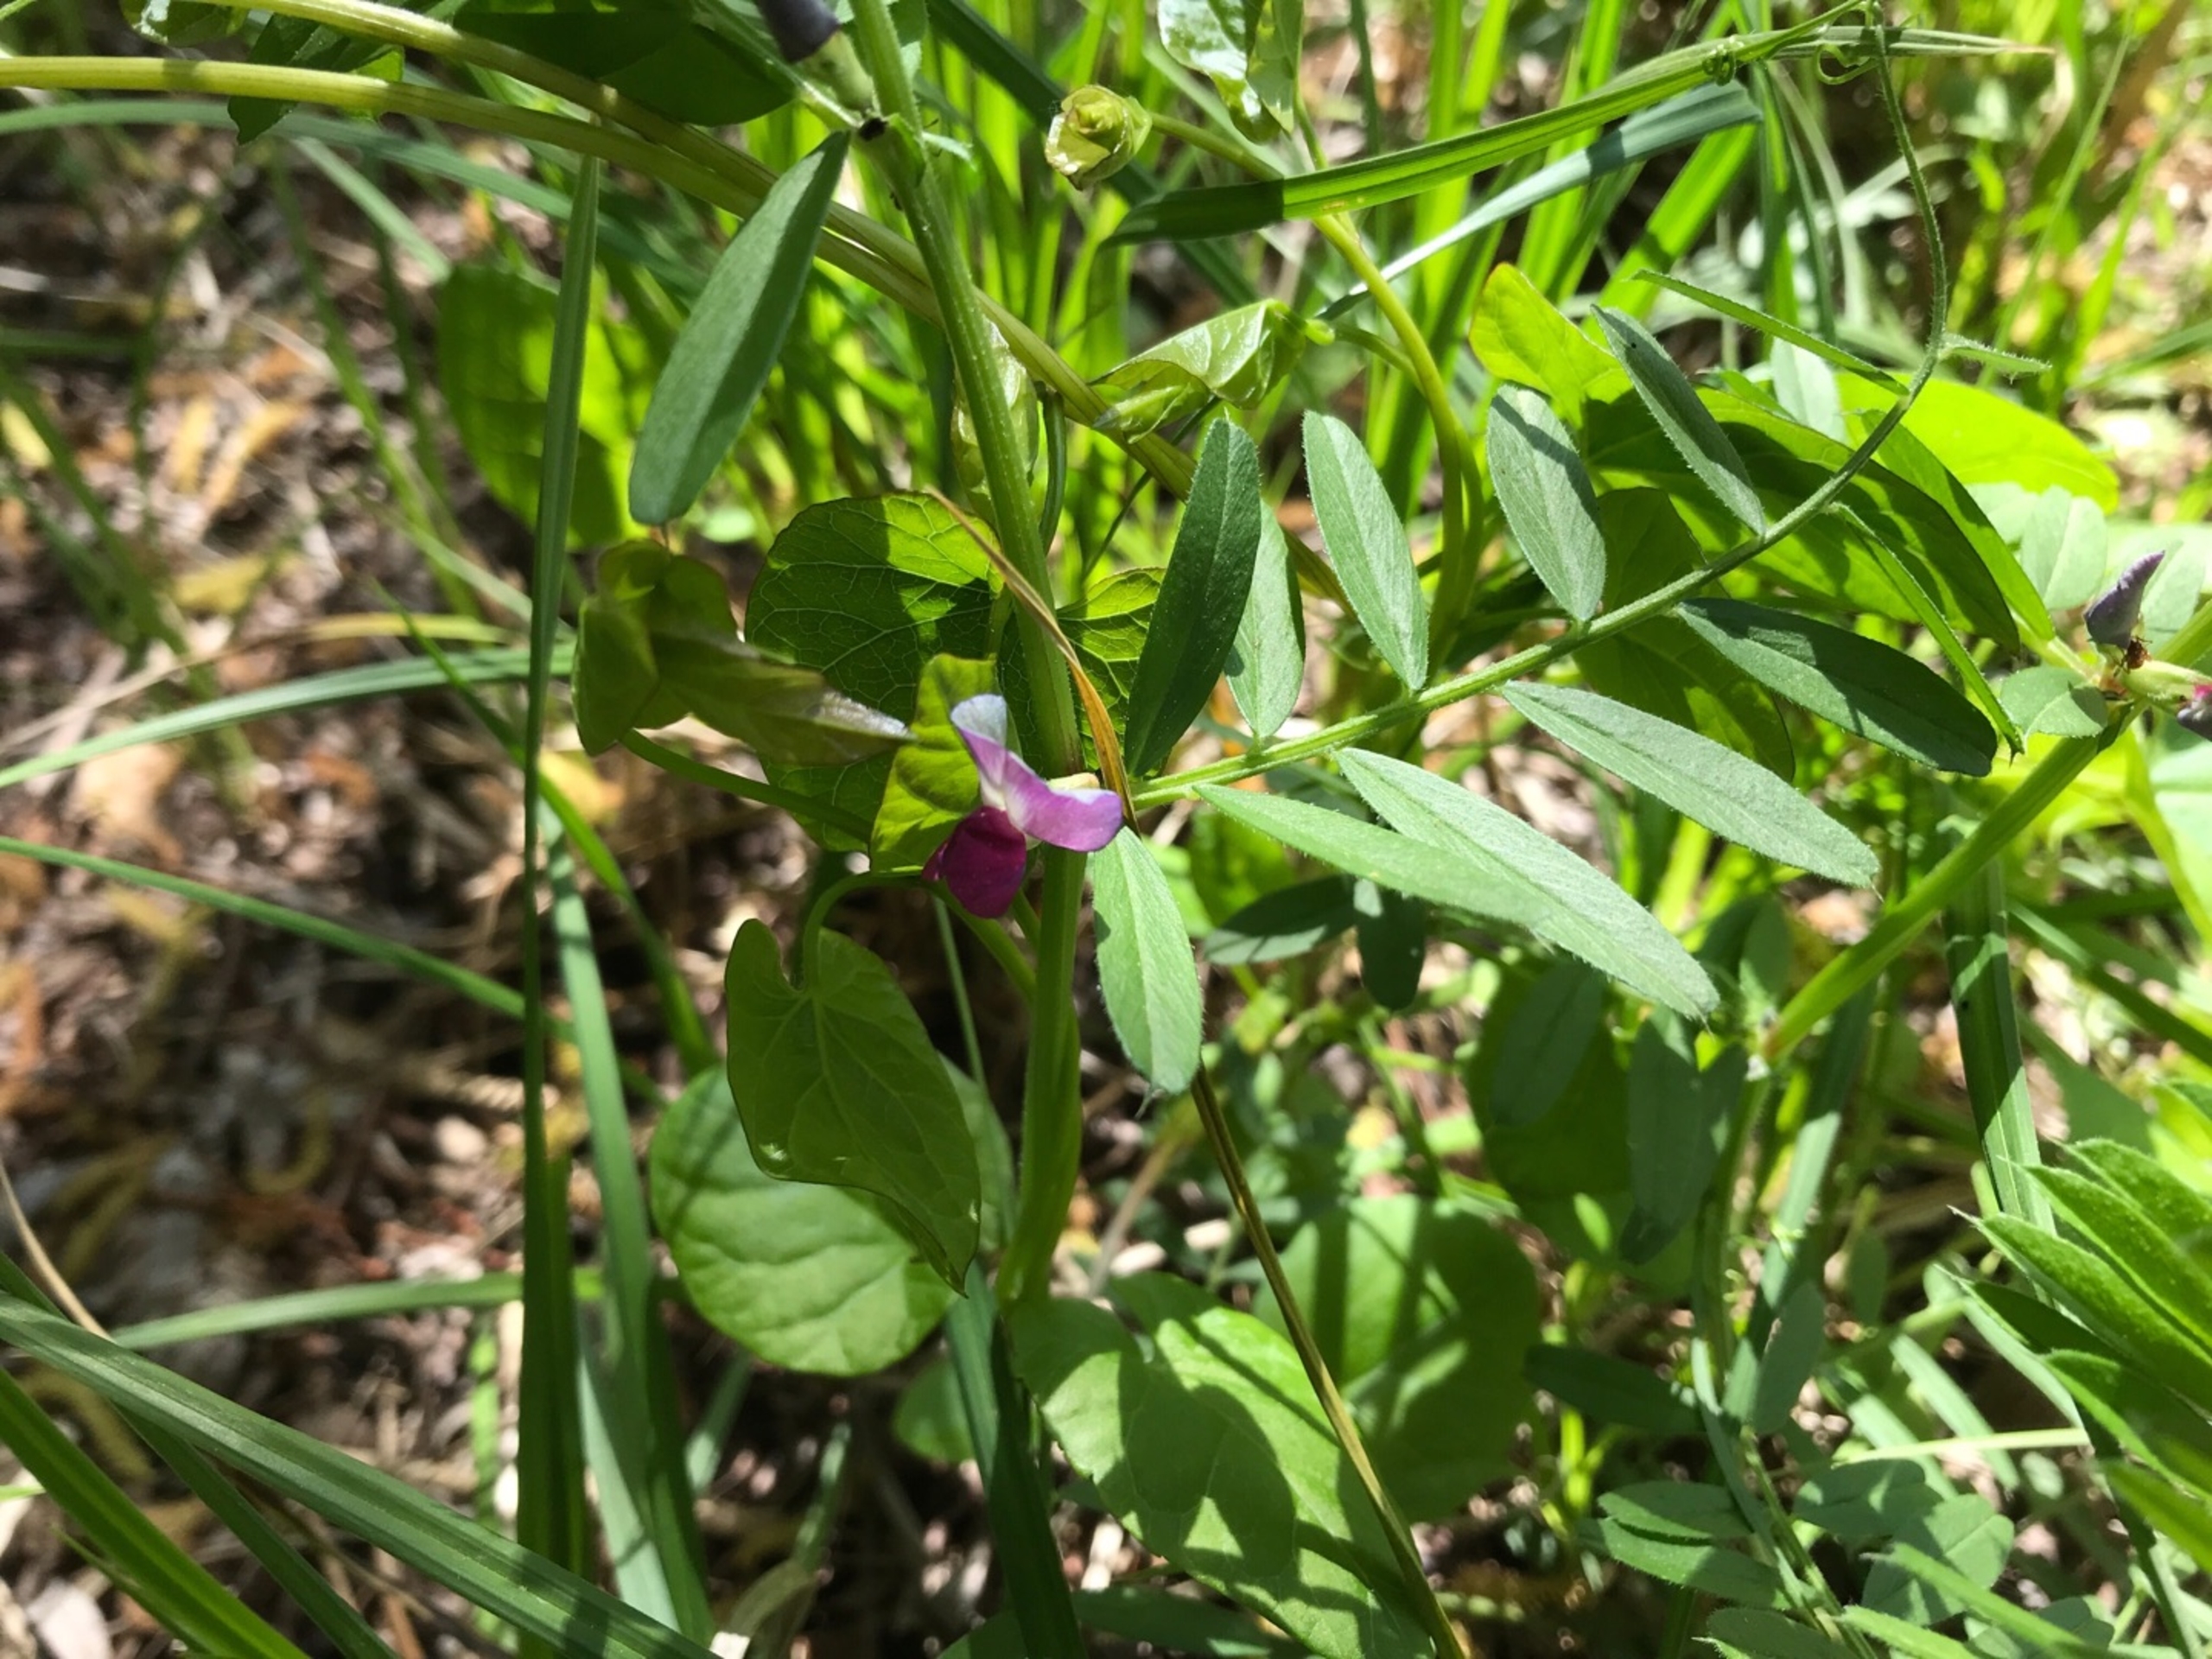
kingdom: Plantae
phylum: Tracheophyta
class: Magnoliopsida
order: Fabales
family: Fabaceae
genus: Vicia
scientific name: Vicia sativa
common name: Ager-vikke
